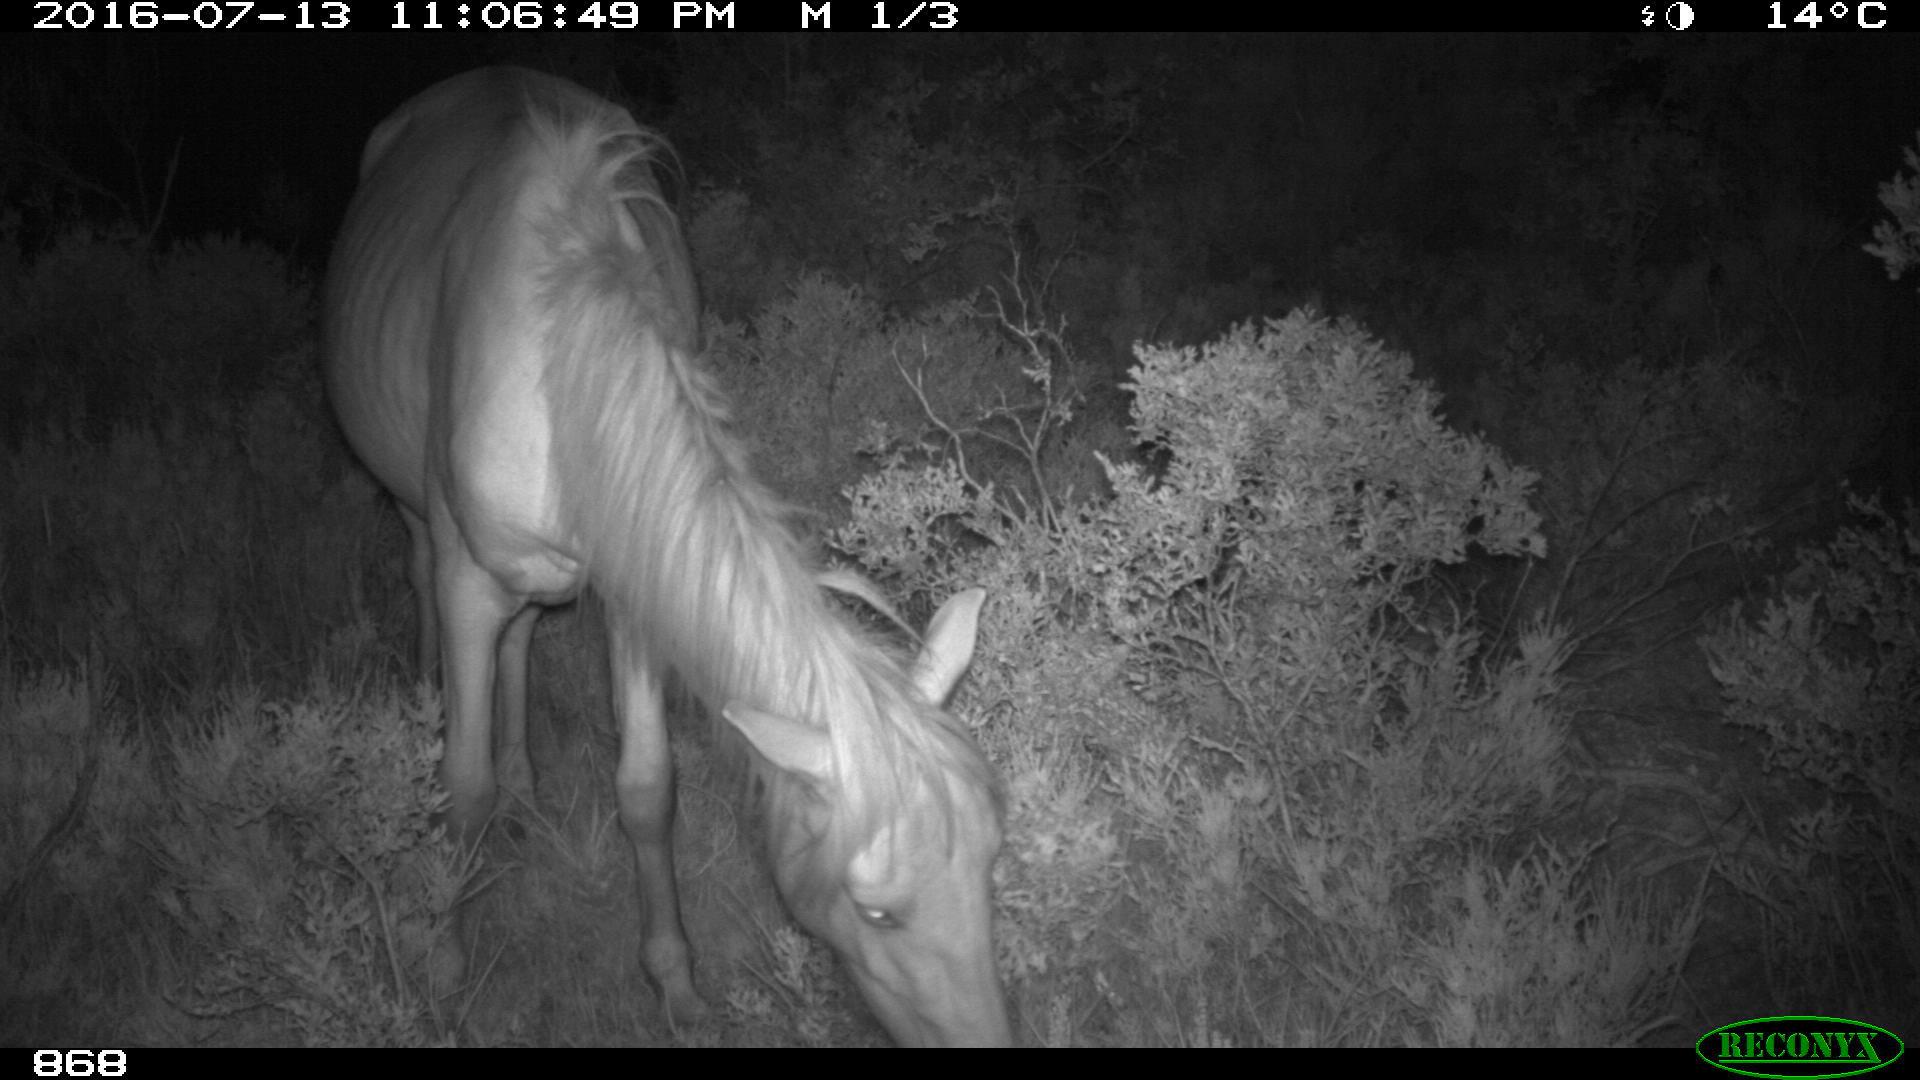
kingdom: Animalia
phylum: Chordata
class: Mammalia
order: Perissodactyla
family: Equidae
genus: Equus
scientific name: Equus caballus
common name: Horse
